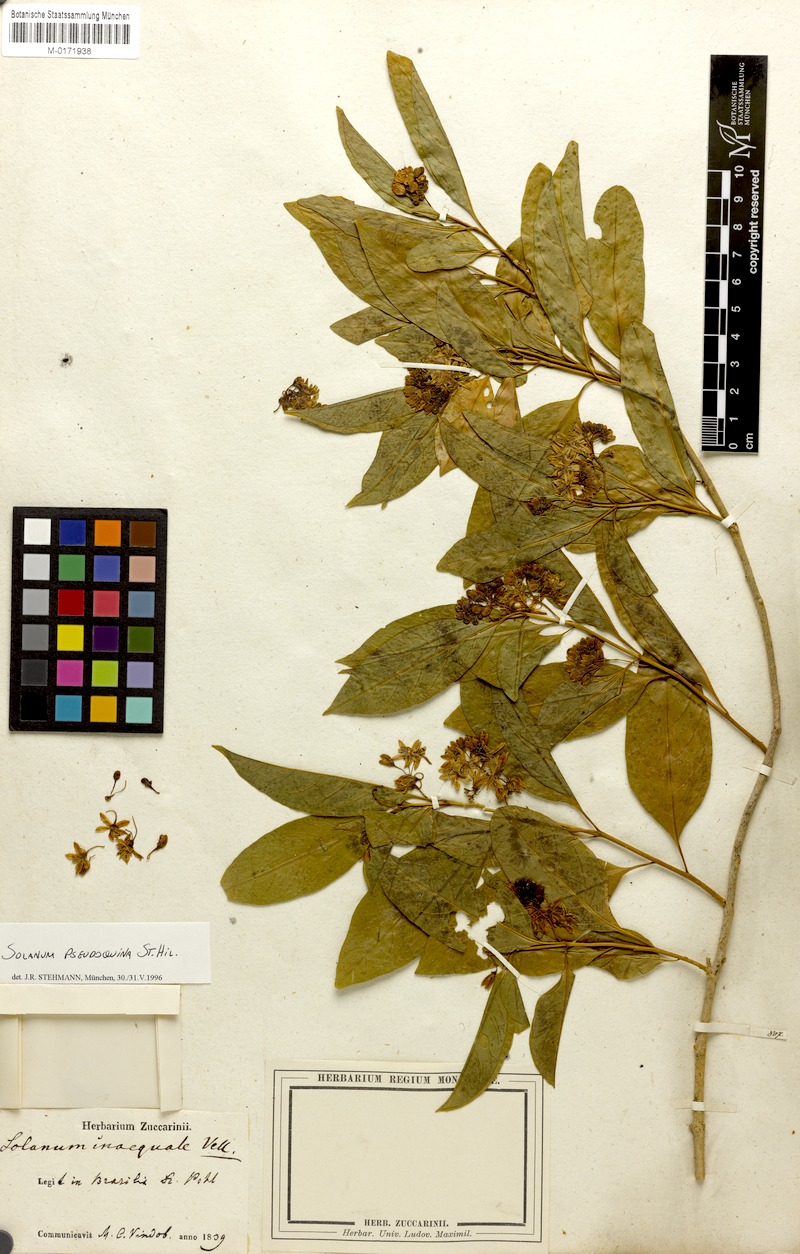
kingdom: Plantae
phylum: Tracheophyta
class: Magnoliopsida
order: Solanales
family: Solanaceae
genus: Solanum
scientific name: Solanum pseudoquina
